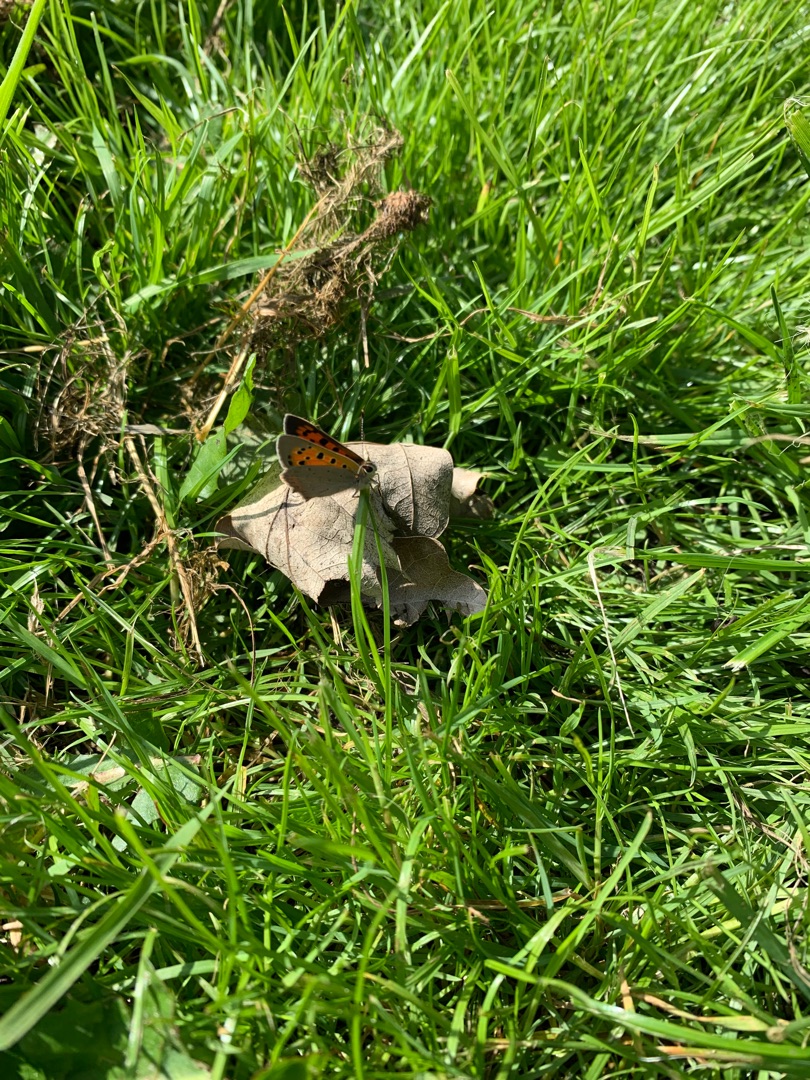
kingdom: Animalia
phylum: Arthropoda
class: Insecta
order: Lepidoptera
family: Lycaenidae
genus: Lycaena
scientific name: Lycaena phlaeas
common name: Lille ildfugl
